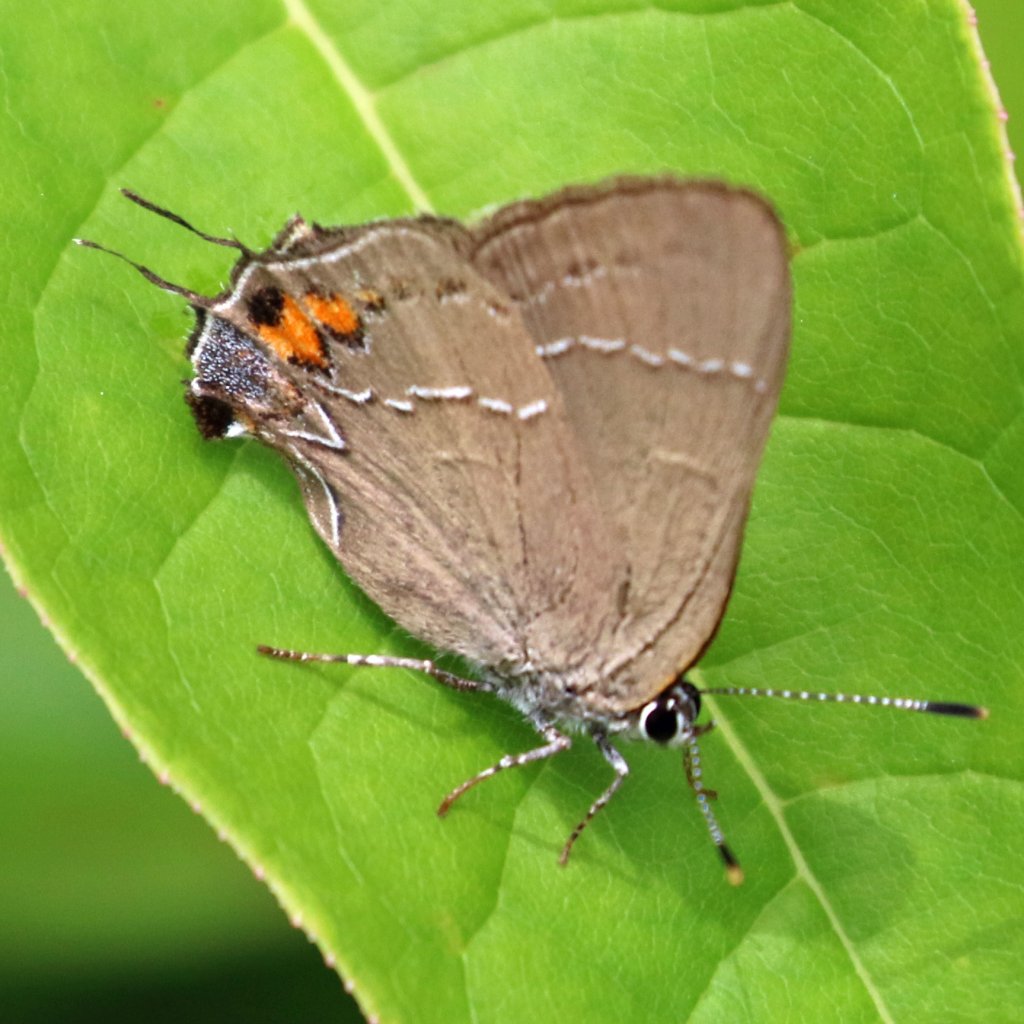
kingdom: Animalia
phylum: Arthropoda
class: Insecta
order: Lepidoptera
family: Lycaenidae
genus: Fixsenia
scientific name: Fixsenia favonius
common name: Oak Hairstreak
